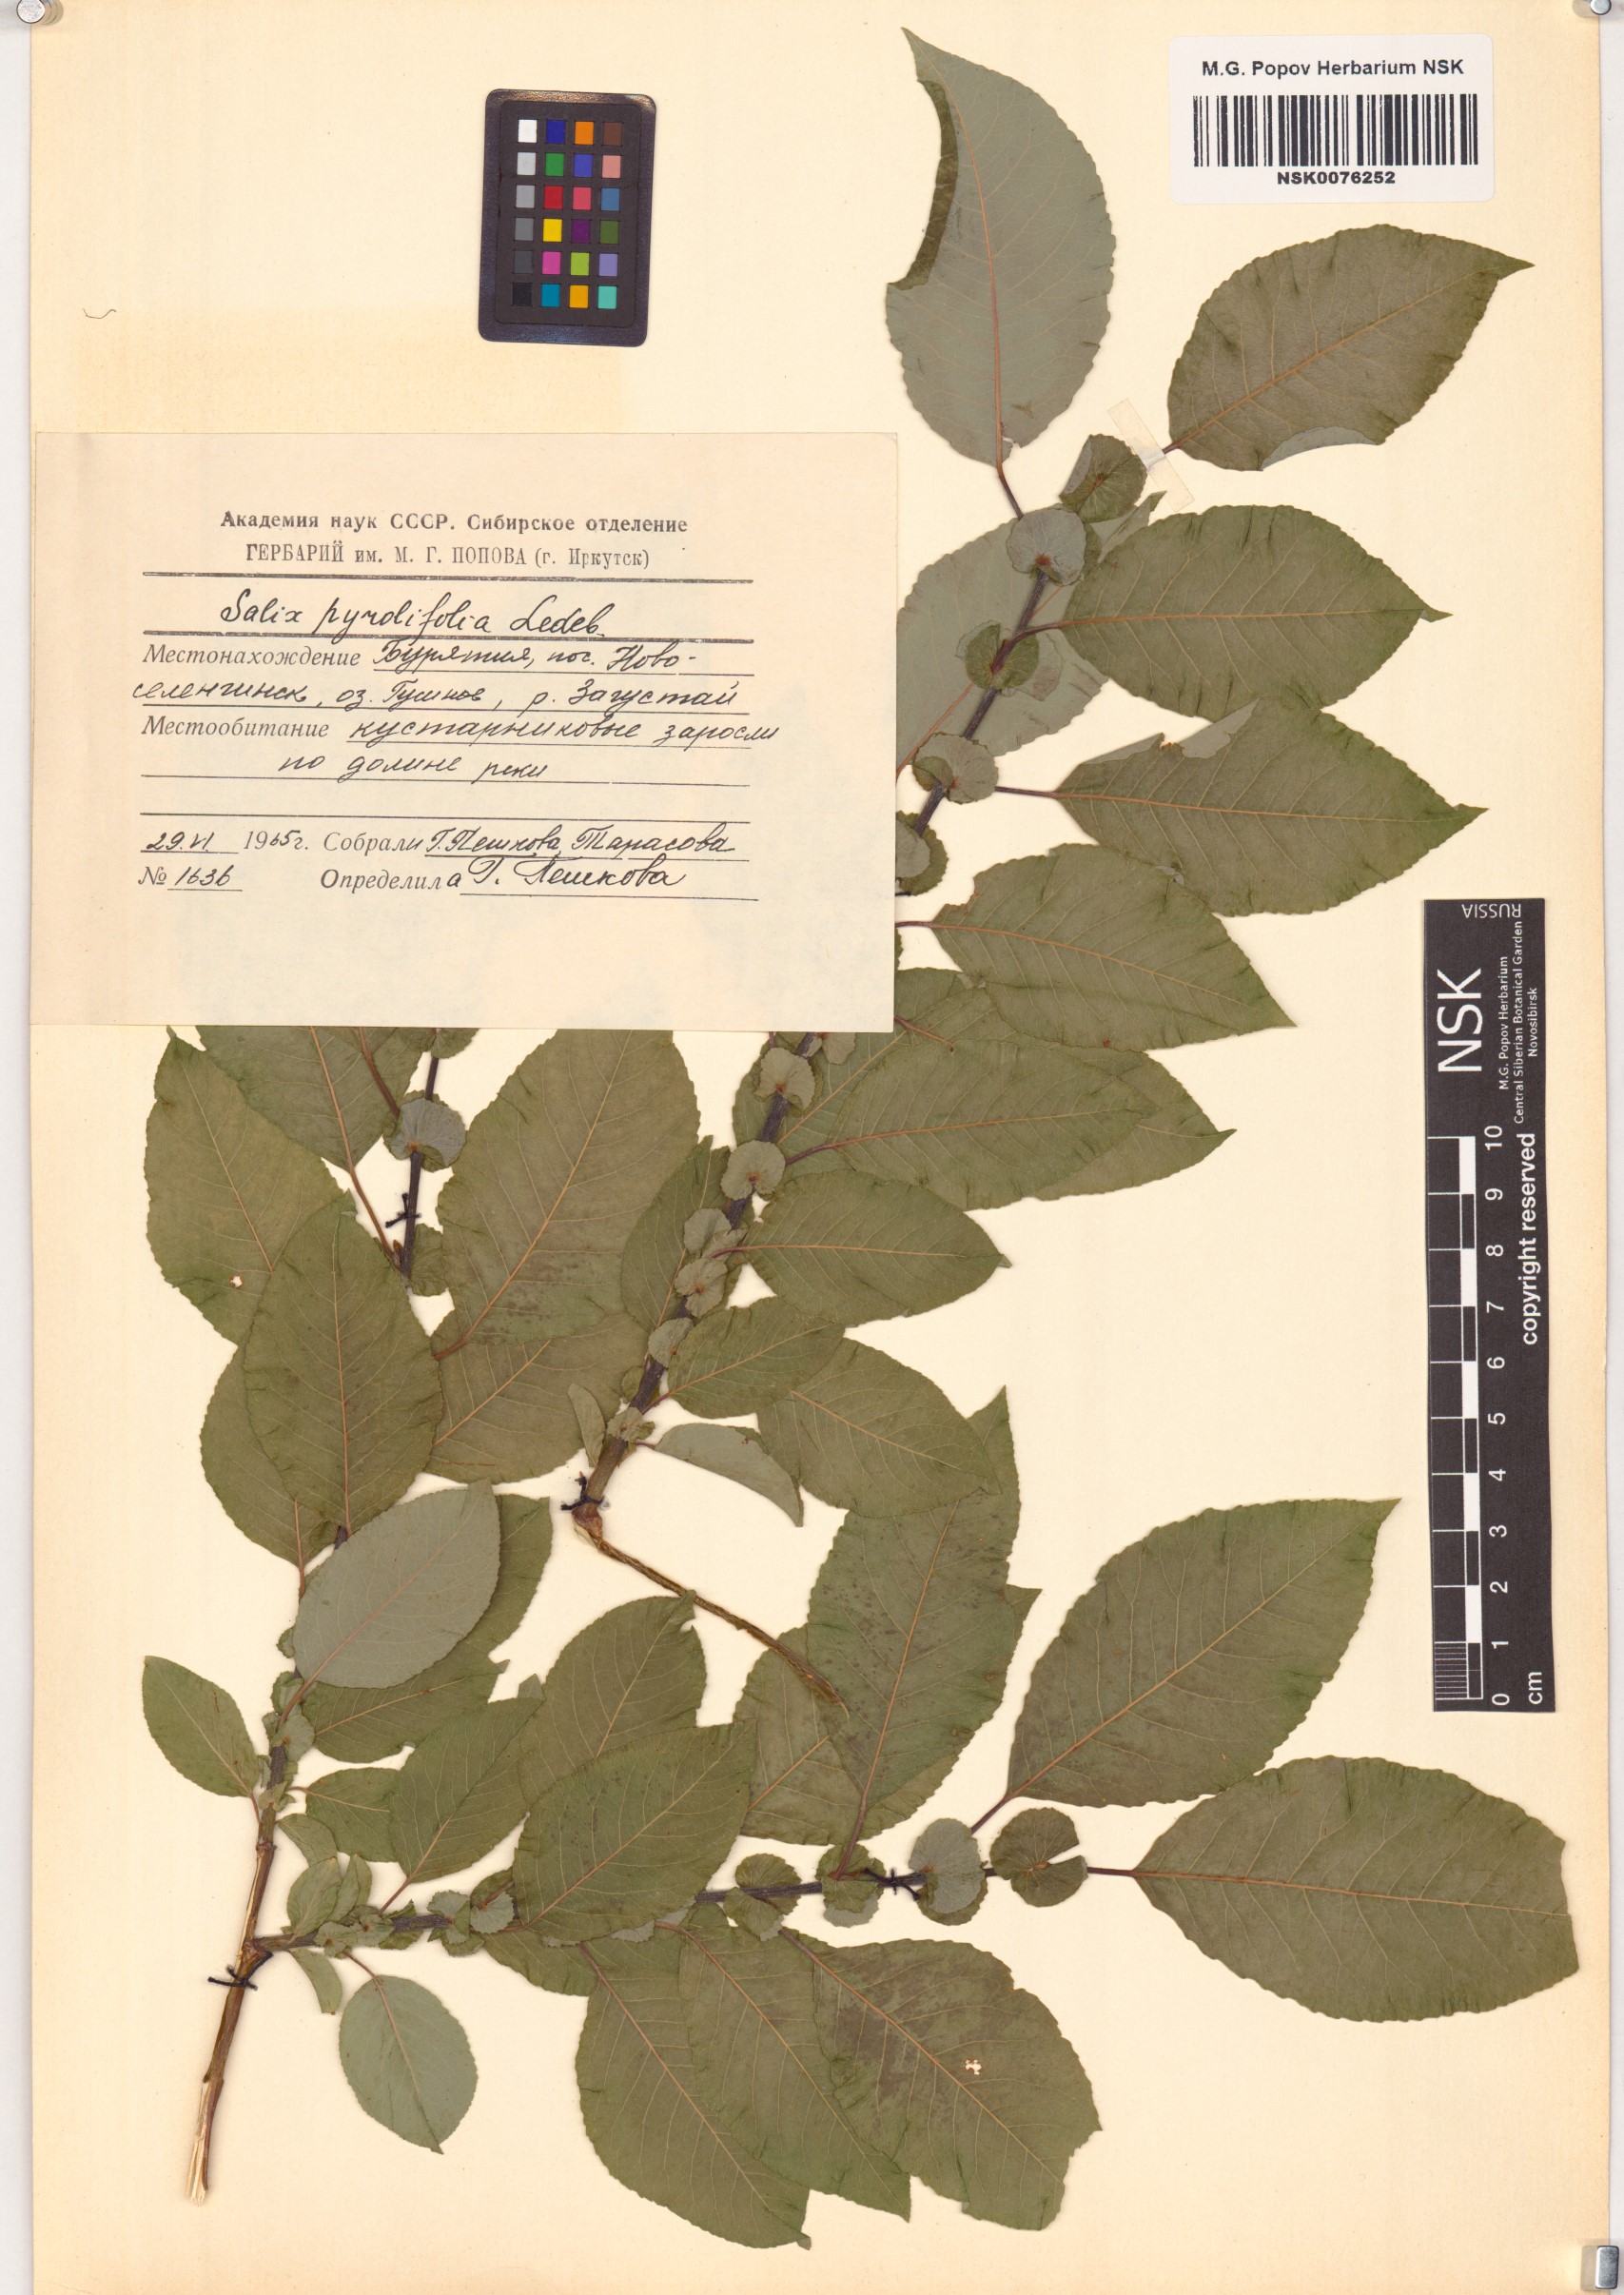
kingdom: Plantae
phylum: Tracheophyta
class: Magnoliopsida
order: Malpighiales
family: Salicaceae
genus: Salix
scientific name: Salix pyrolifolia
